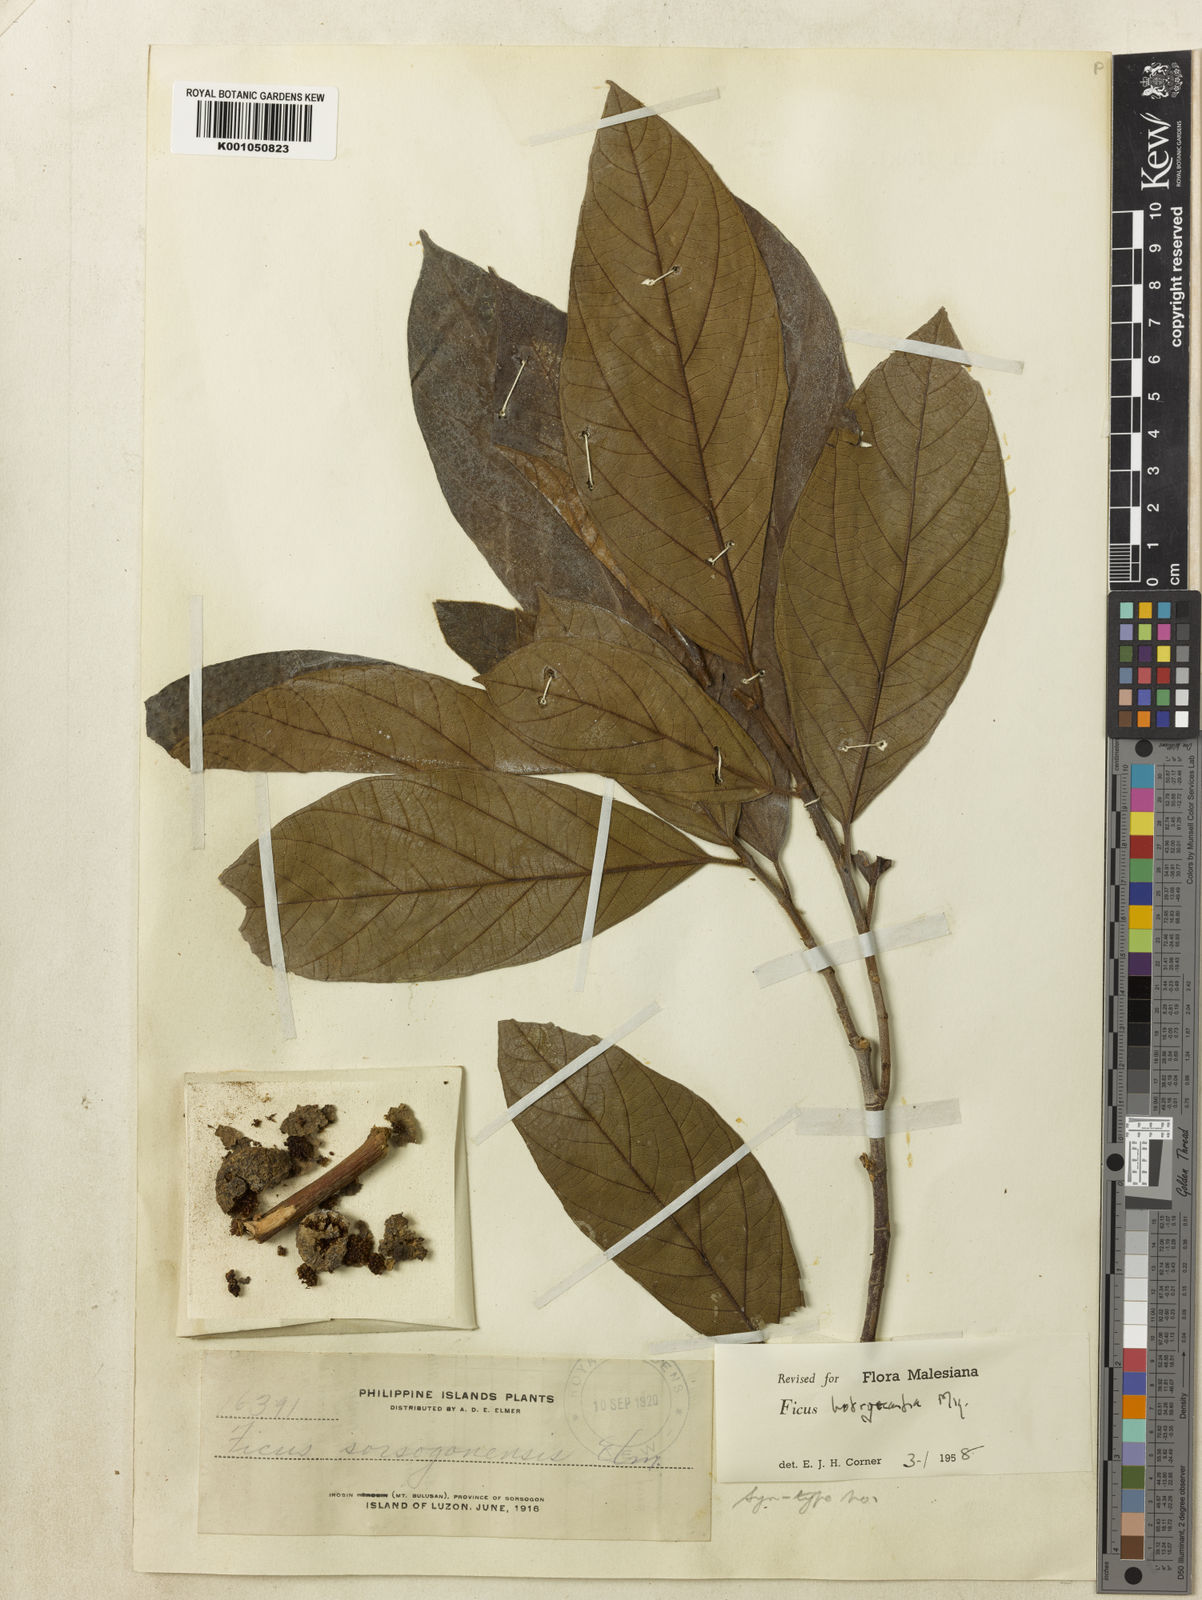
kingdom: Plantae
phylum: Tracheophyta
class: Magnoliopsida
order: Rosales
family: Moraceae
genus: Ficus
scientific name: Ficus botryocarpa
